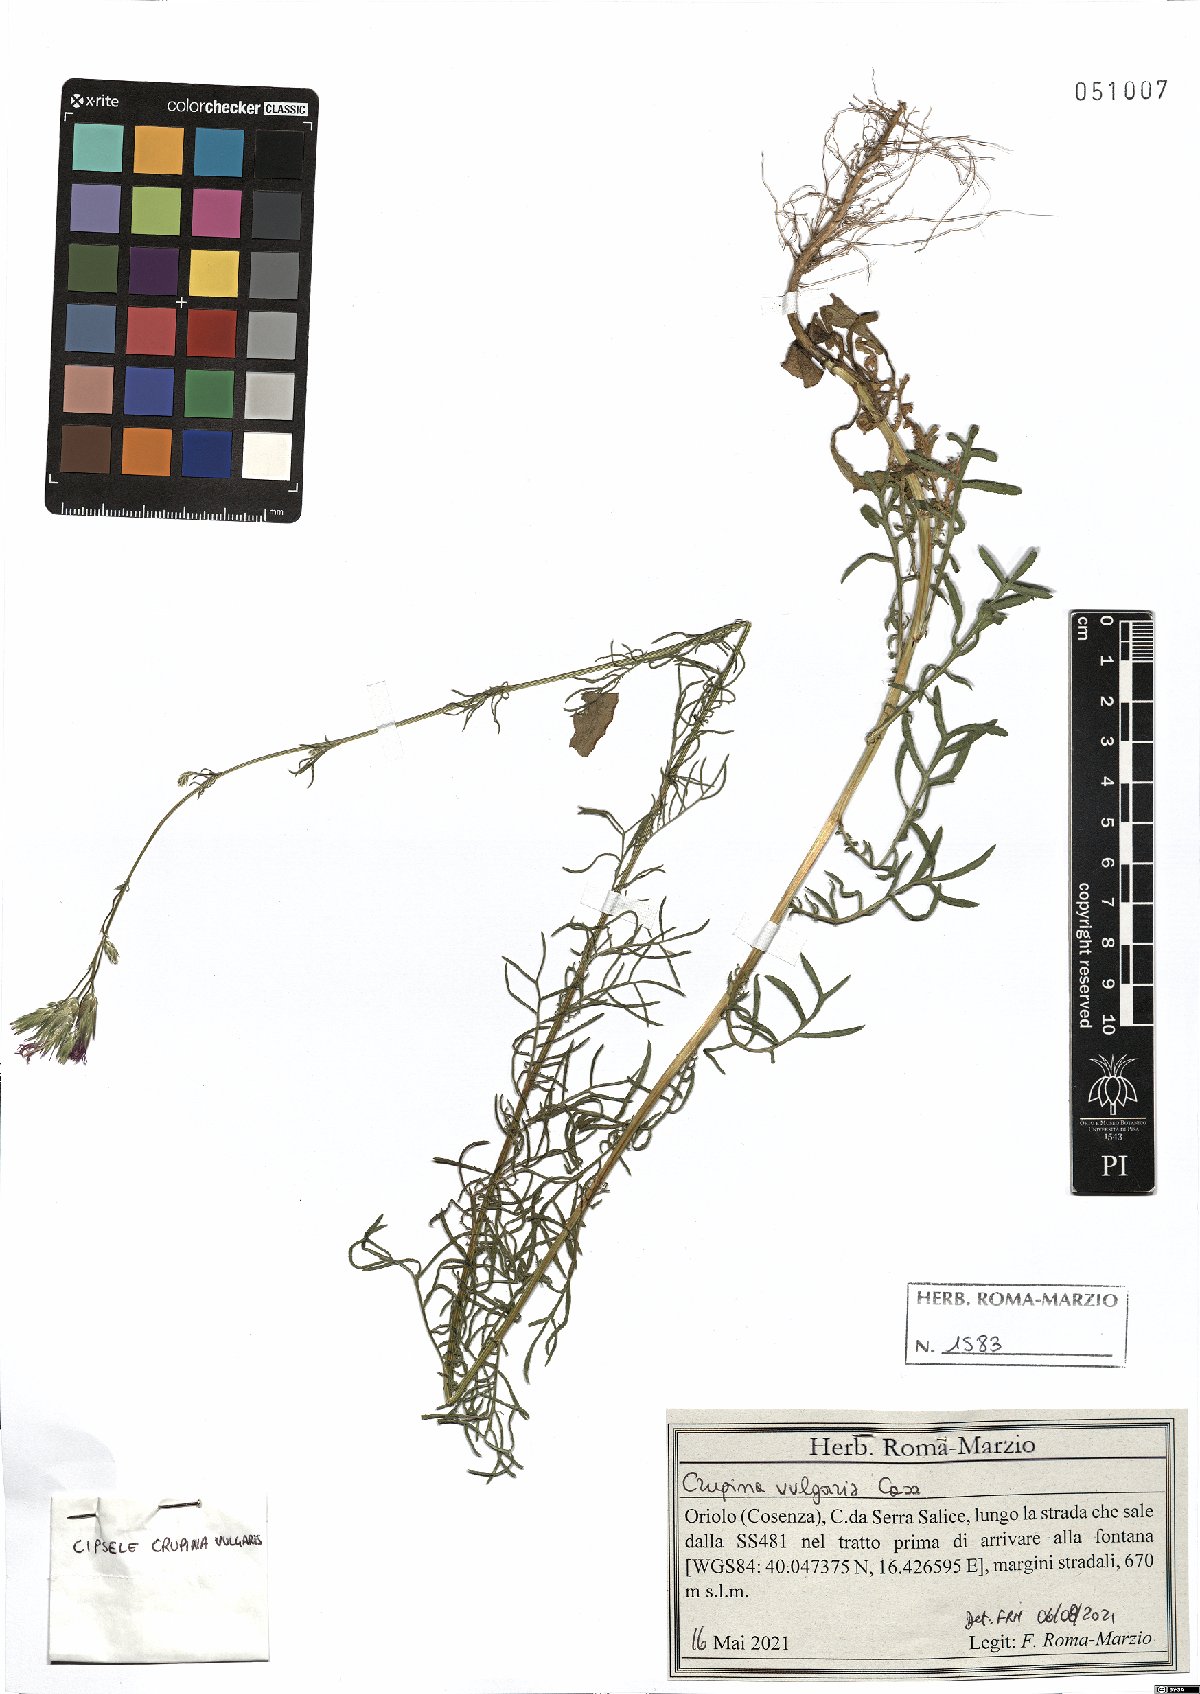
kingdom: Plantae
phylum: Tracheophyta
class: Magnoliopsida
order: Asterales
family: Asteraceae
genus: Crupina
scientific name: Crupina vulgaris
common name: Common crupina
